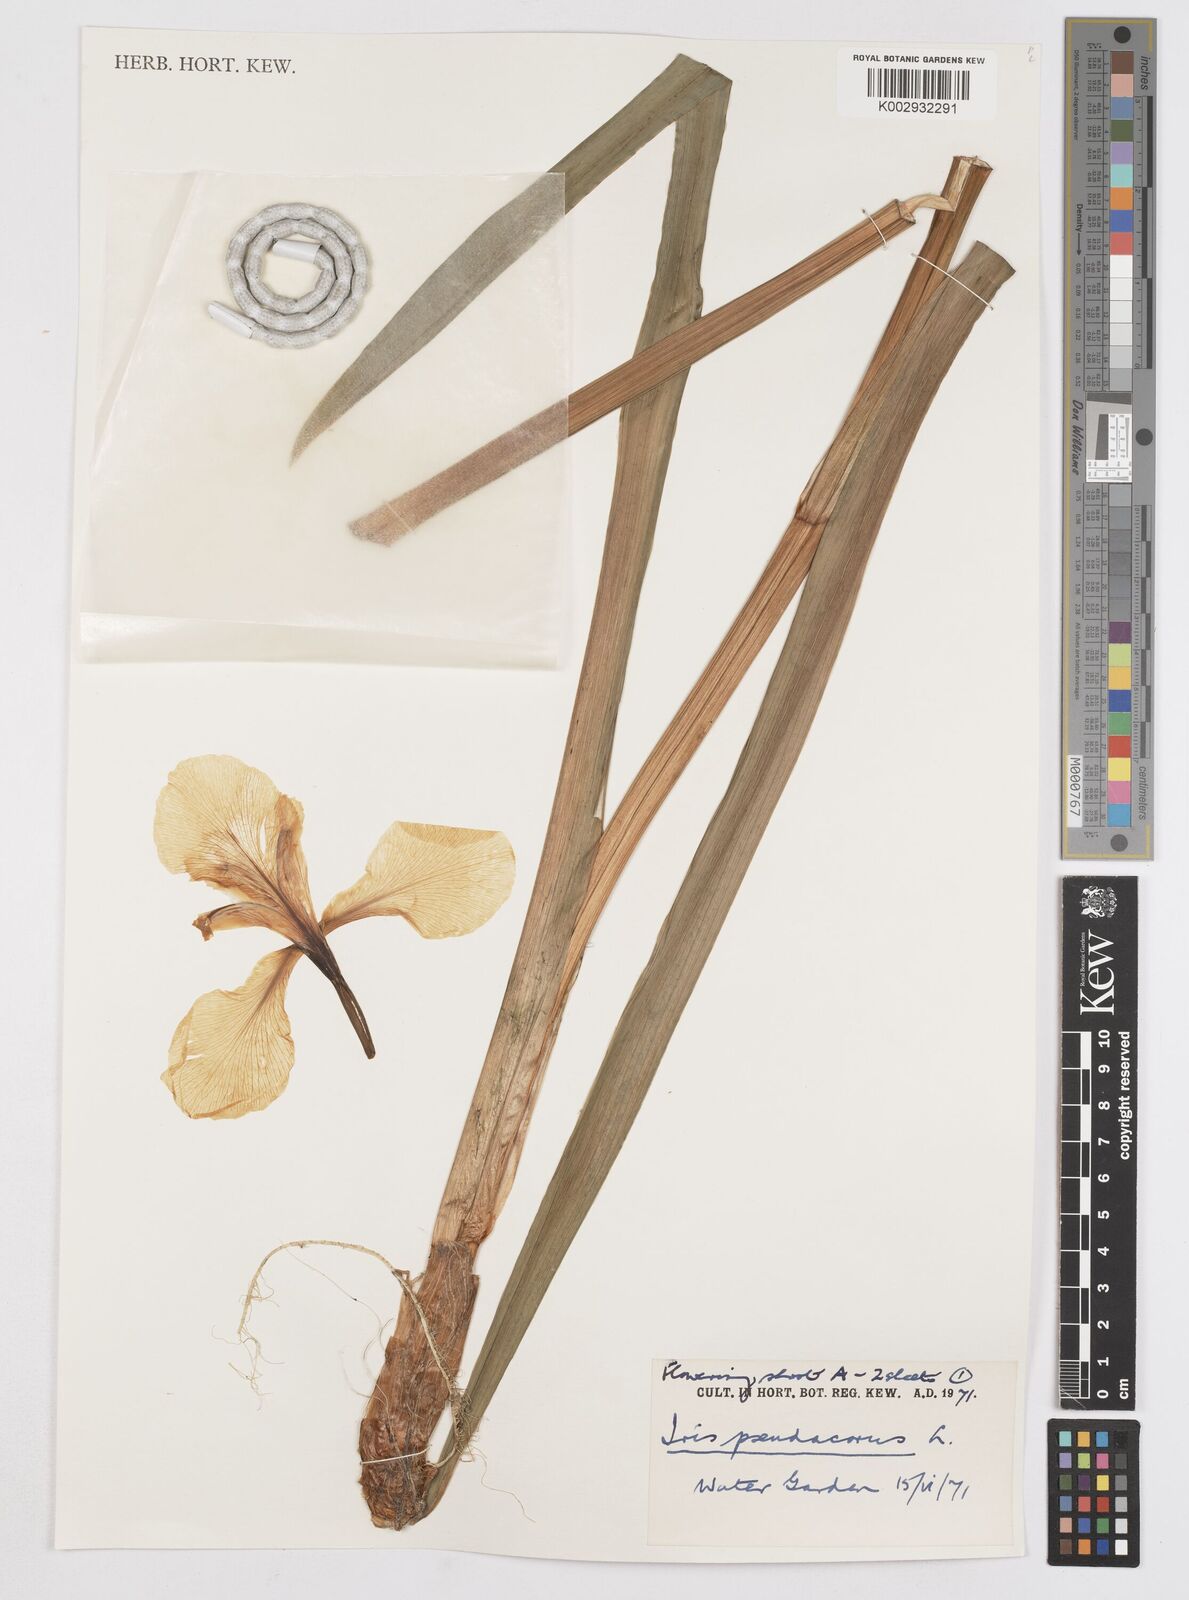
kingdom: Plantae
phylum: Tracheophyta
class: Liliopsida
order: Asparagales
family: Iridaceae
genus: Iris
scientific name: Iris pseudacorus
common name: Yellow flag
